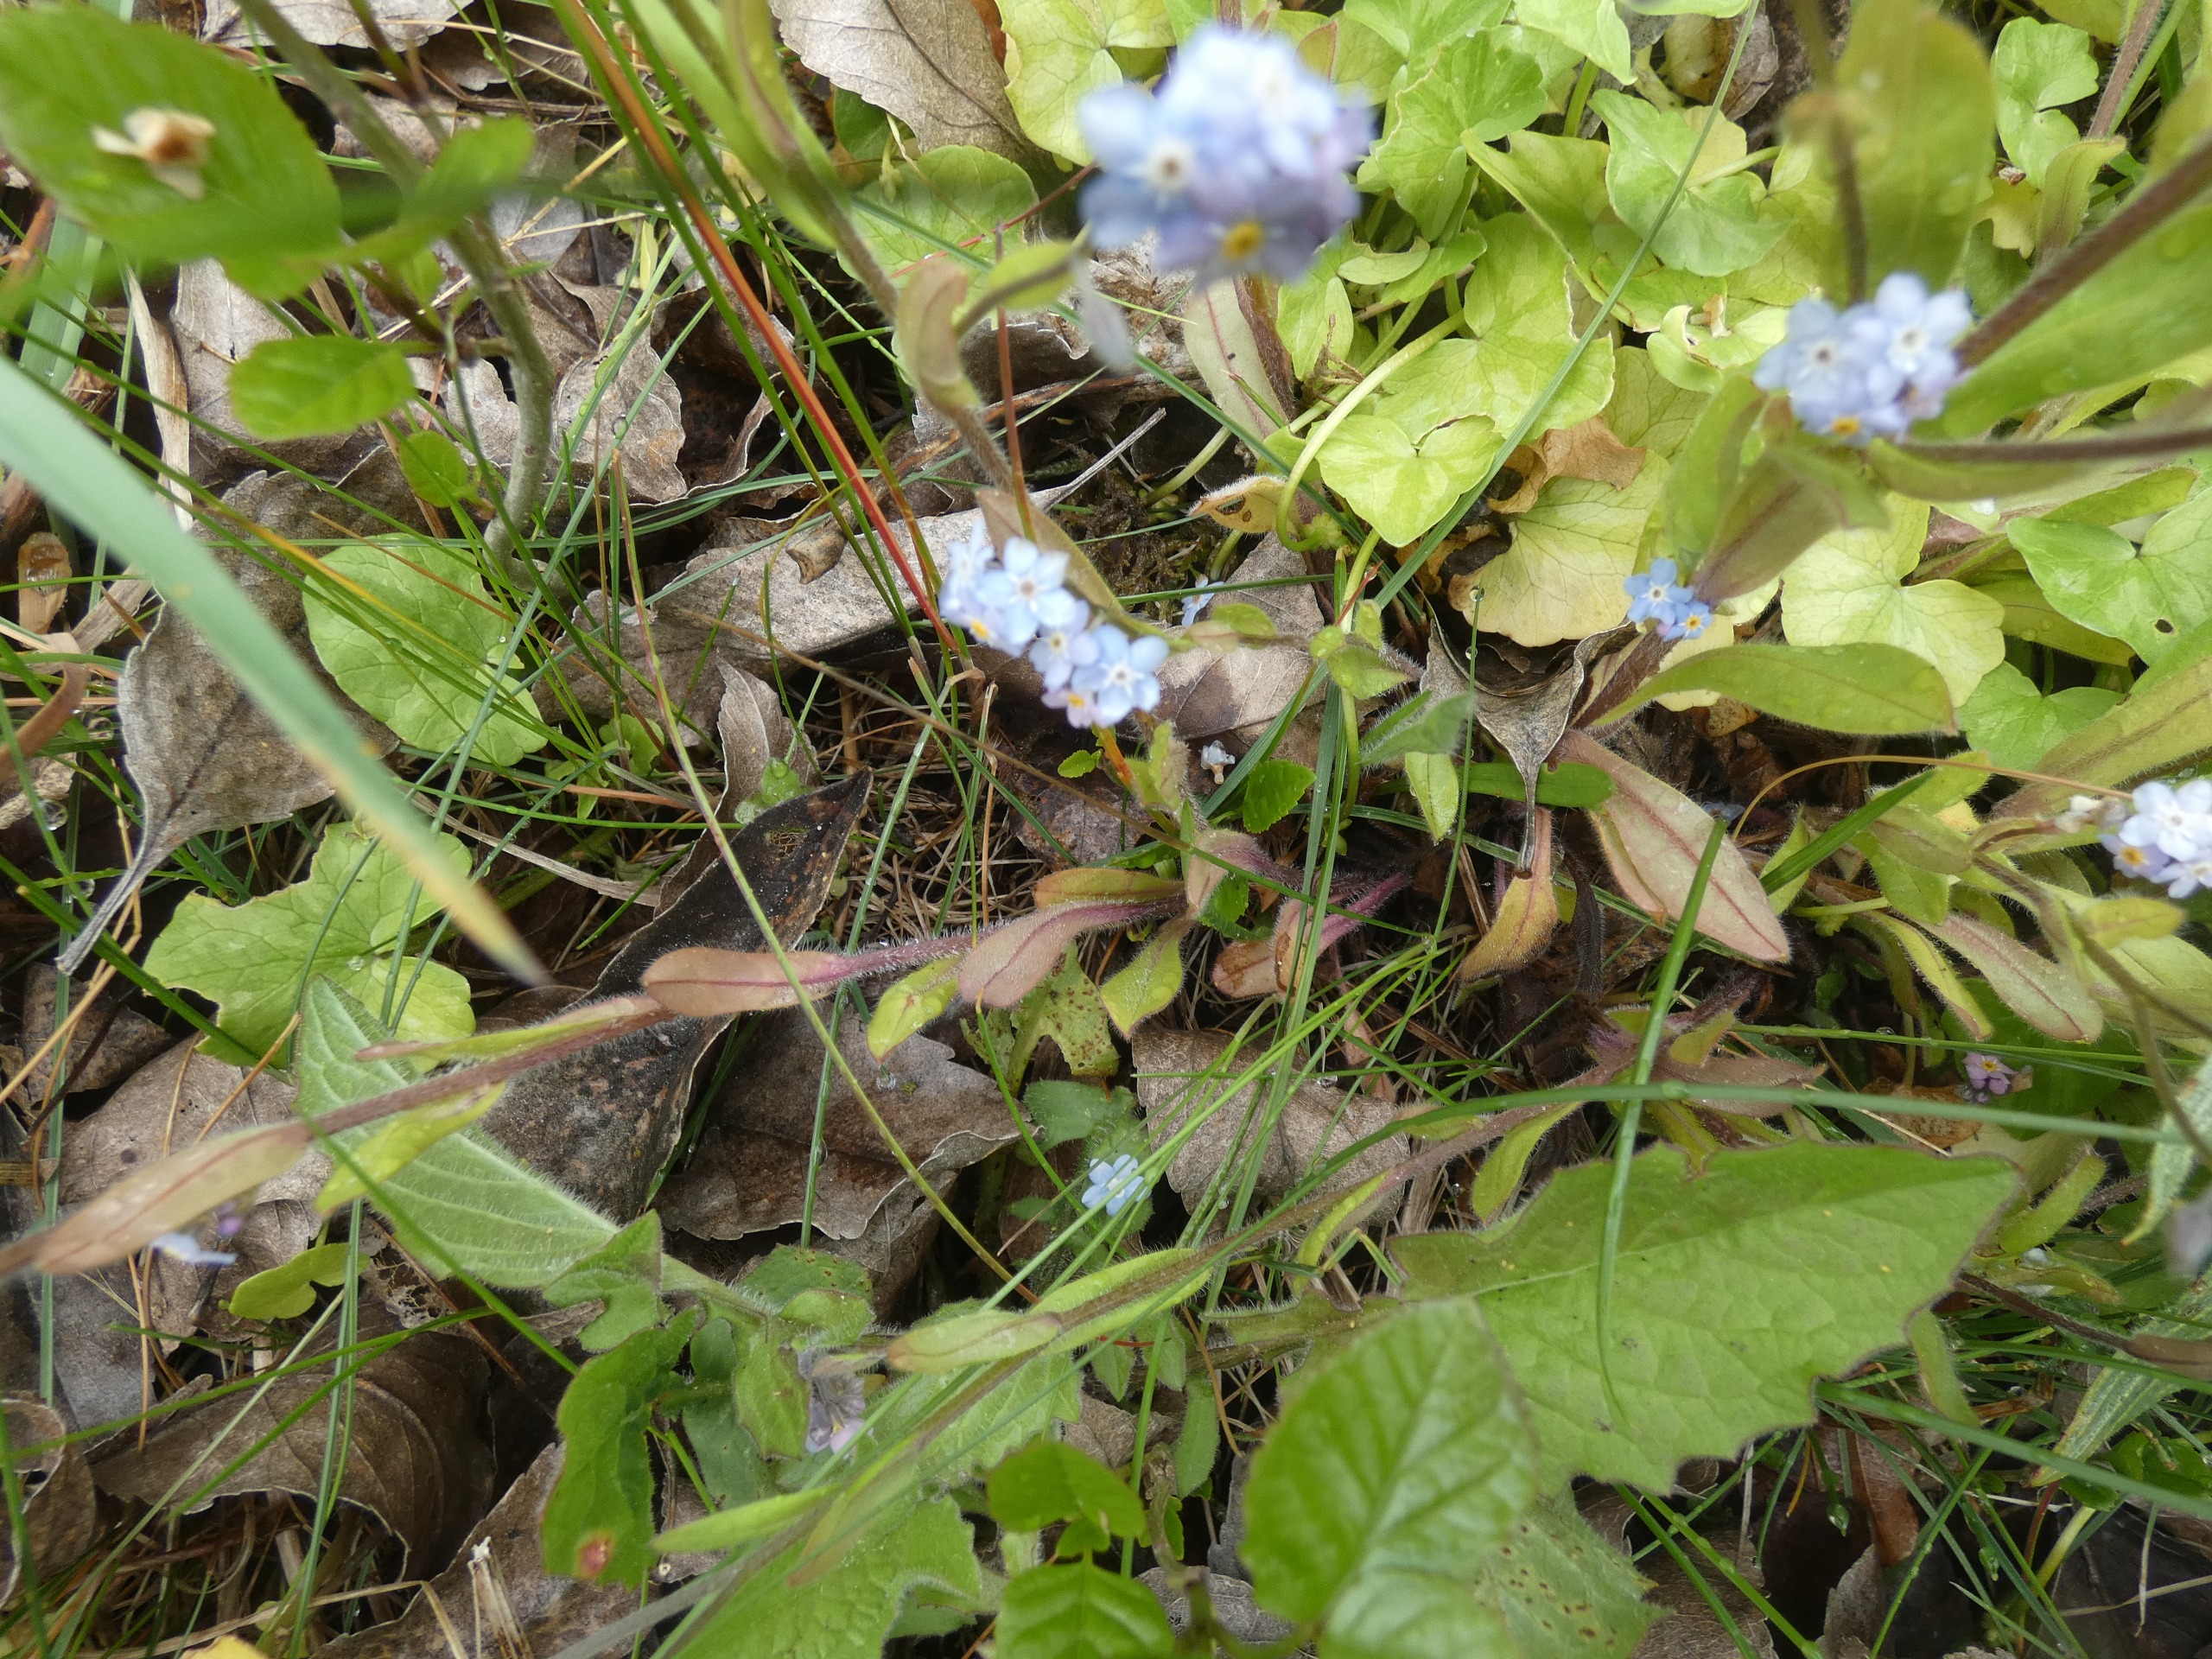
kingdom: Plantae
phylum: Tracheophyta
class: Magnoliopsida
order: Boraginales
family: Boraginaceae
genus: Myosotis
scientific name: Myosotis sylvatica
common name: Skov-forglemmigej
